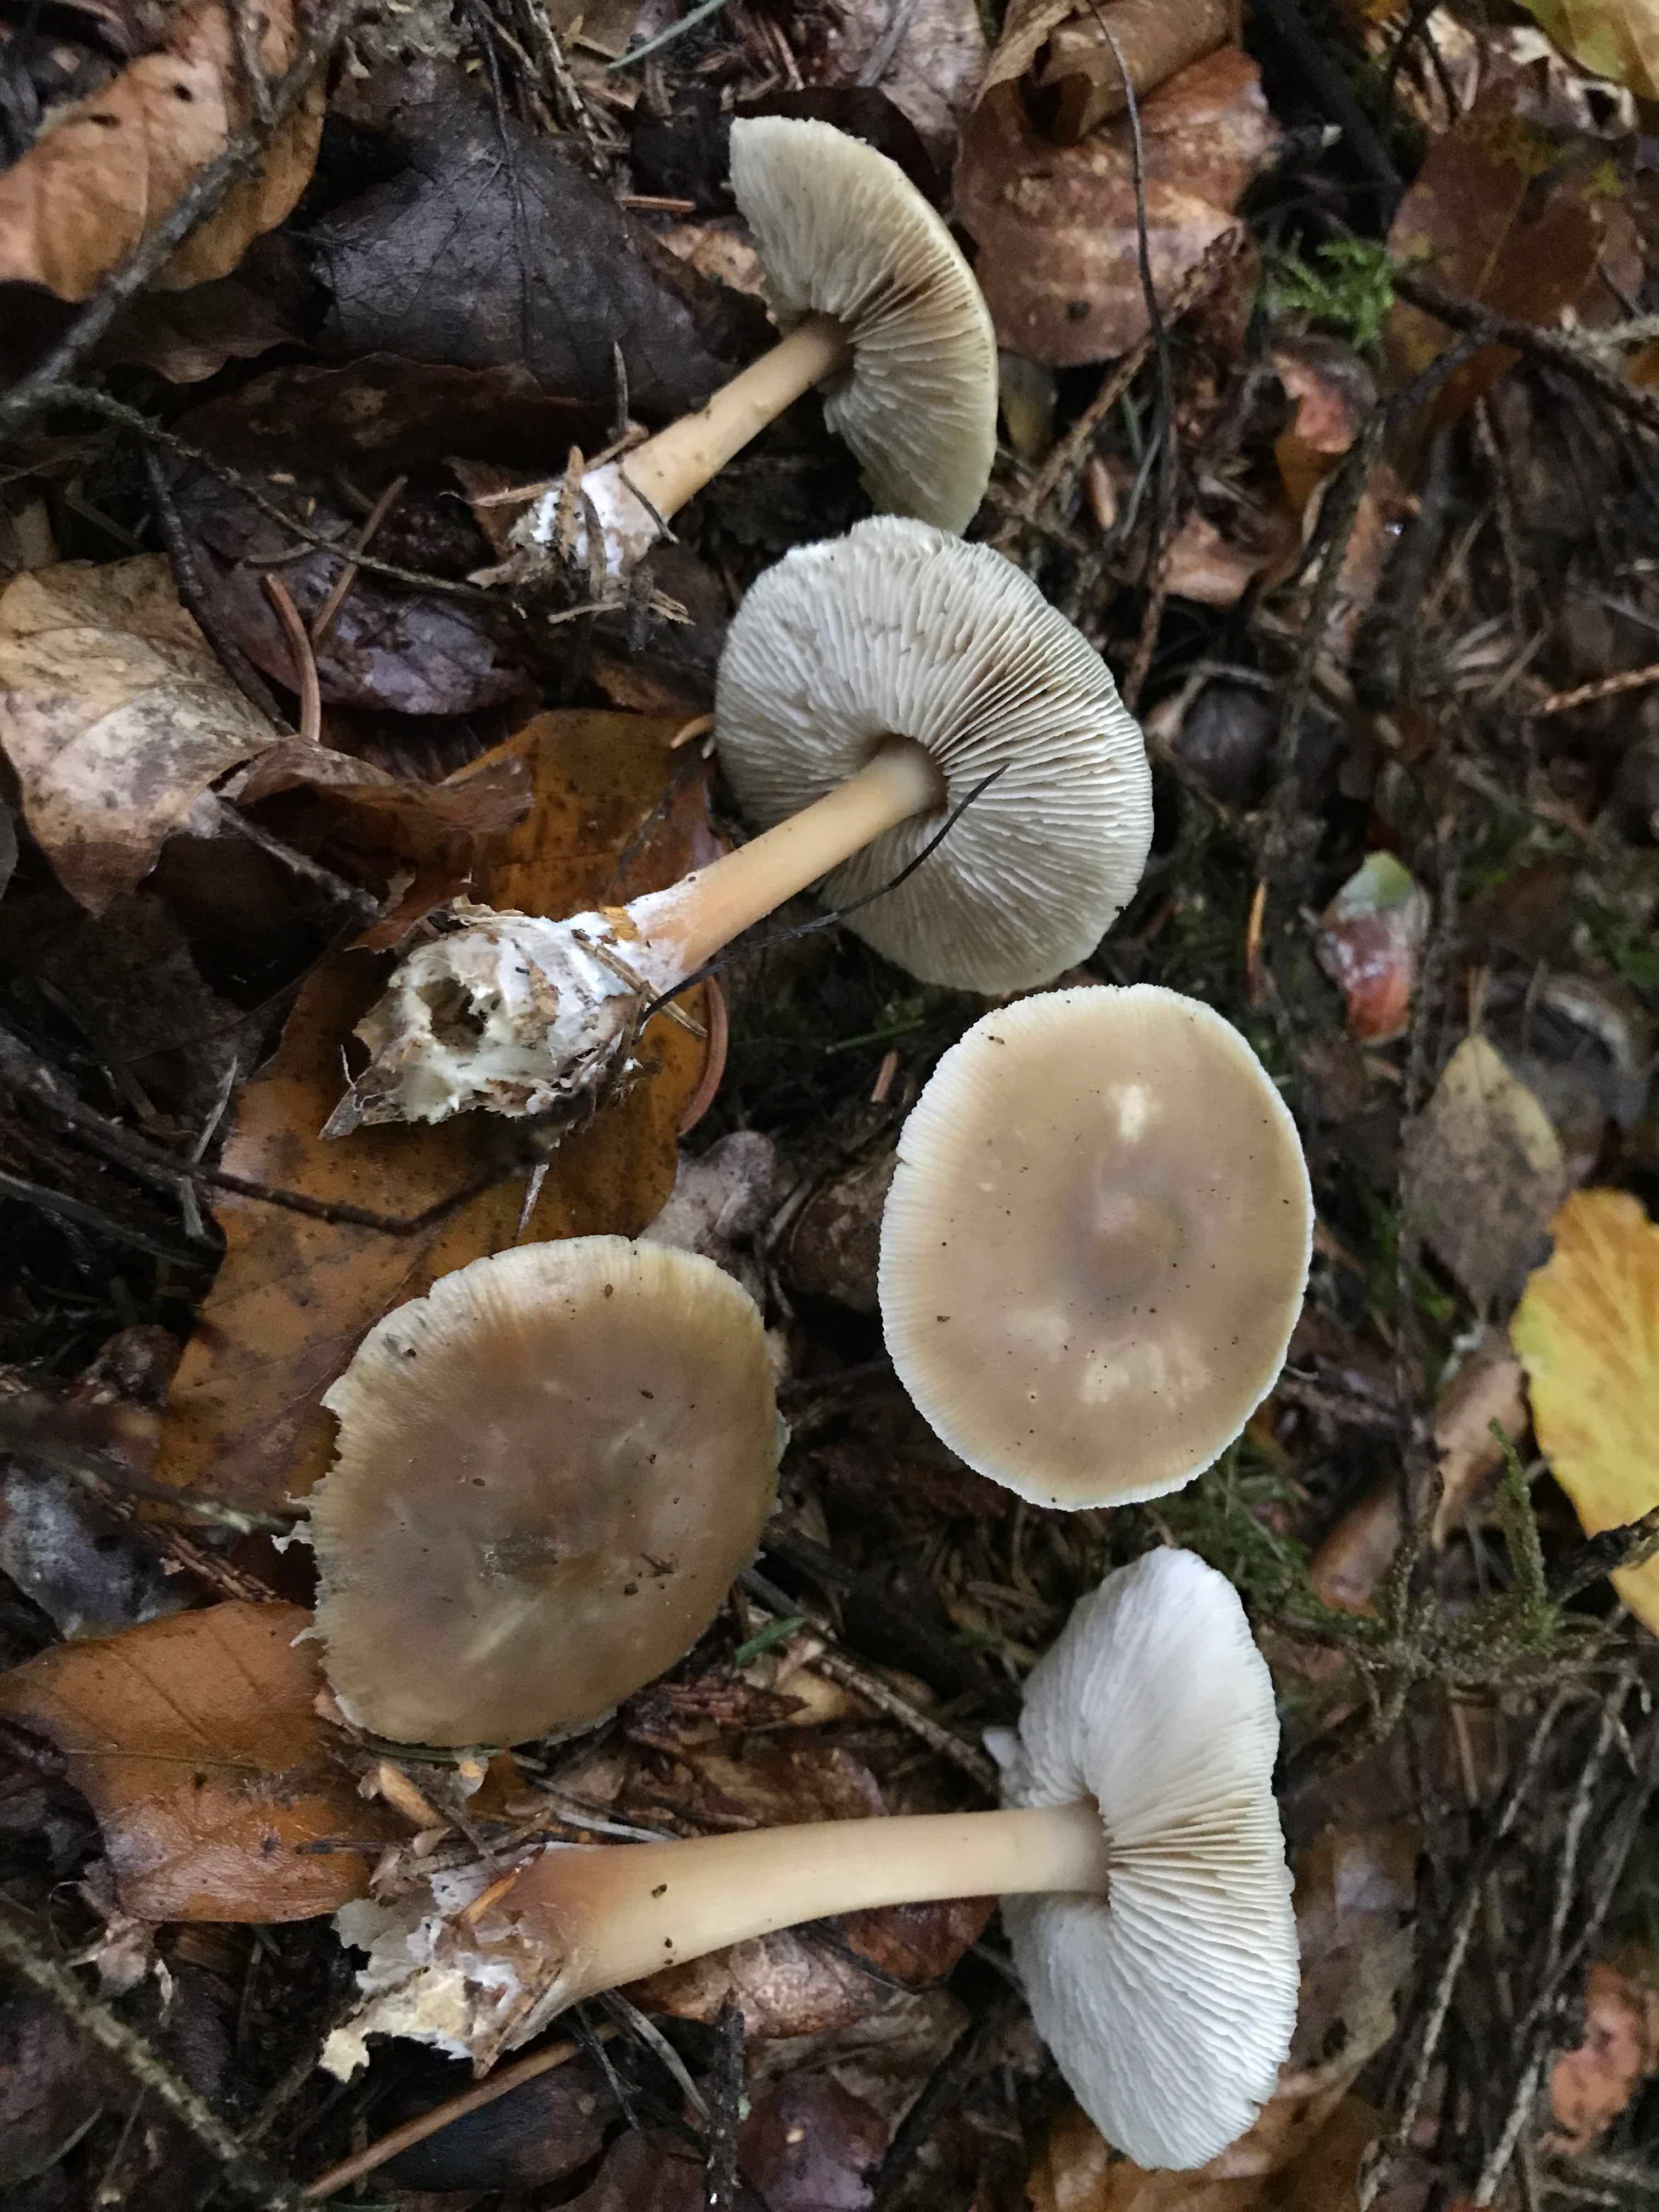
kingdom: Fungi
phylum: Basidiomycota
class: Agaricomycetes
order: Agaricales
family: Omphalotaceae
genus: Rhodocollybia
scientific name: Rhodocollybia asema
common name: horngrå fladhat
